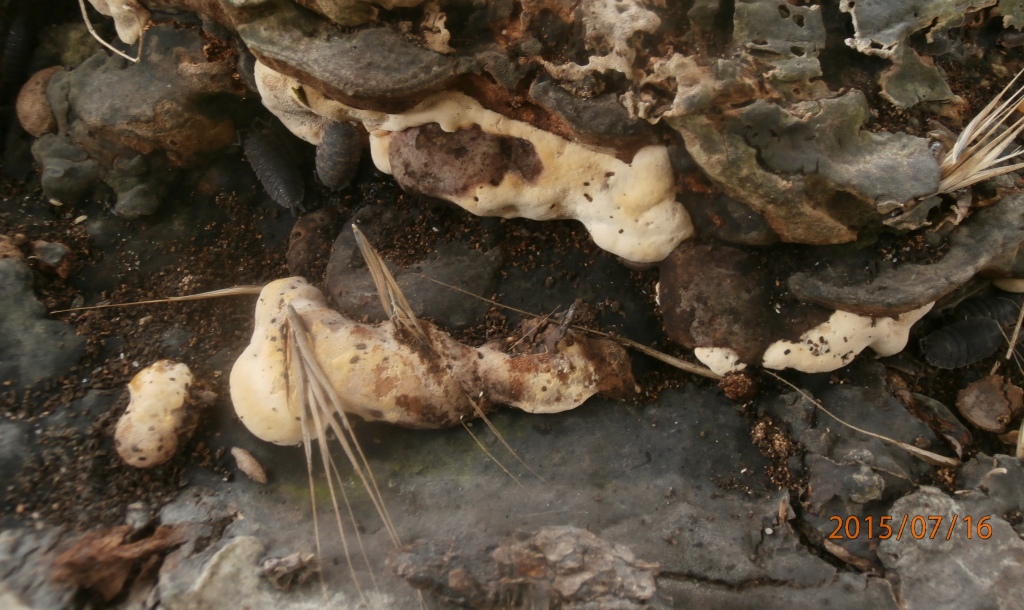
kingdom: Fungi
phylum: Basidiomycota
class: Agaricomycetes
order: Polyporales
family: Polyporaceae
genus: Vanderbylia
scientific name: Vanderbylia fraxinea
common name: stor kanelporesvamp
